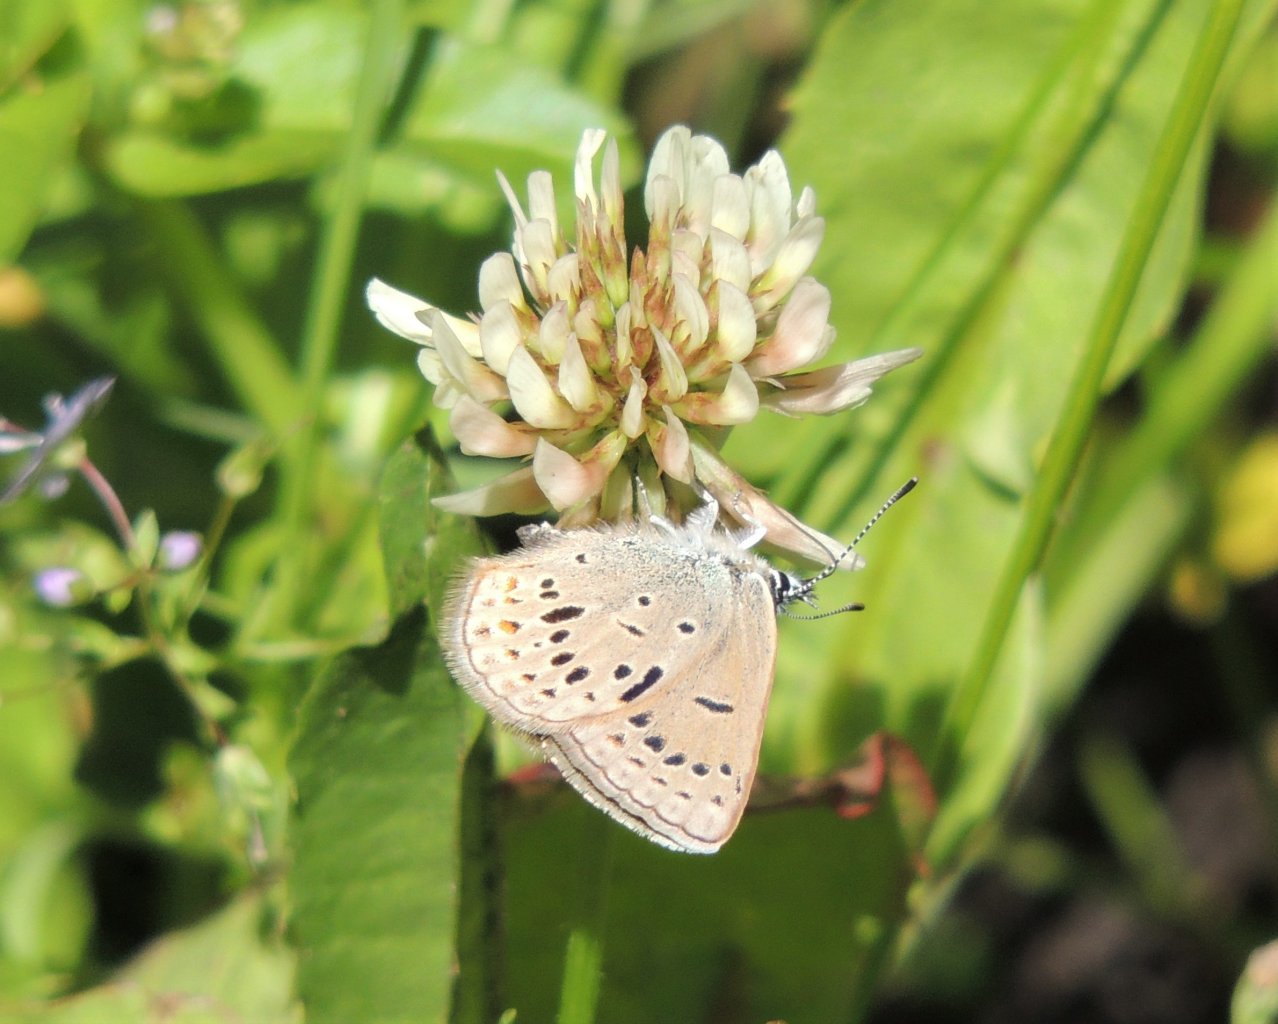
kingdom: Animalia
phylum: Arthropoda
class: Insecta
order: Lepidoptera
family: Lycaenidae
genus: Plebejus
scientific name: Plebejus saepiolus
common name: Greenish Blue
